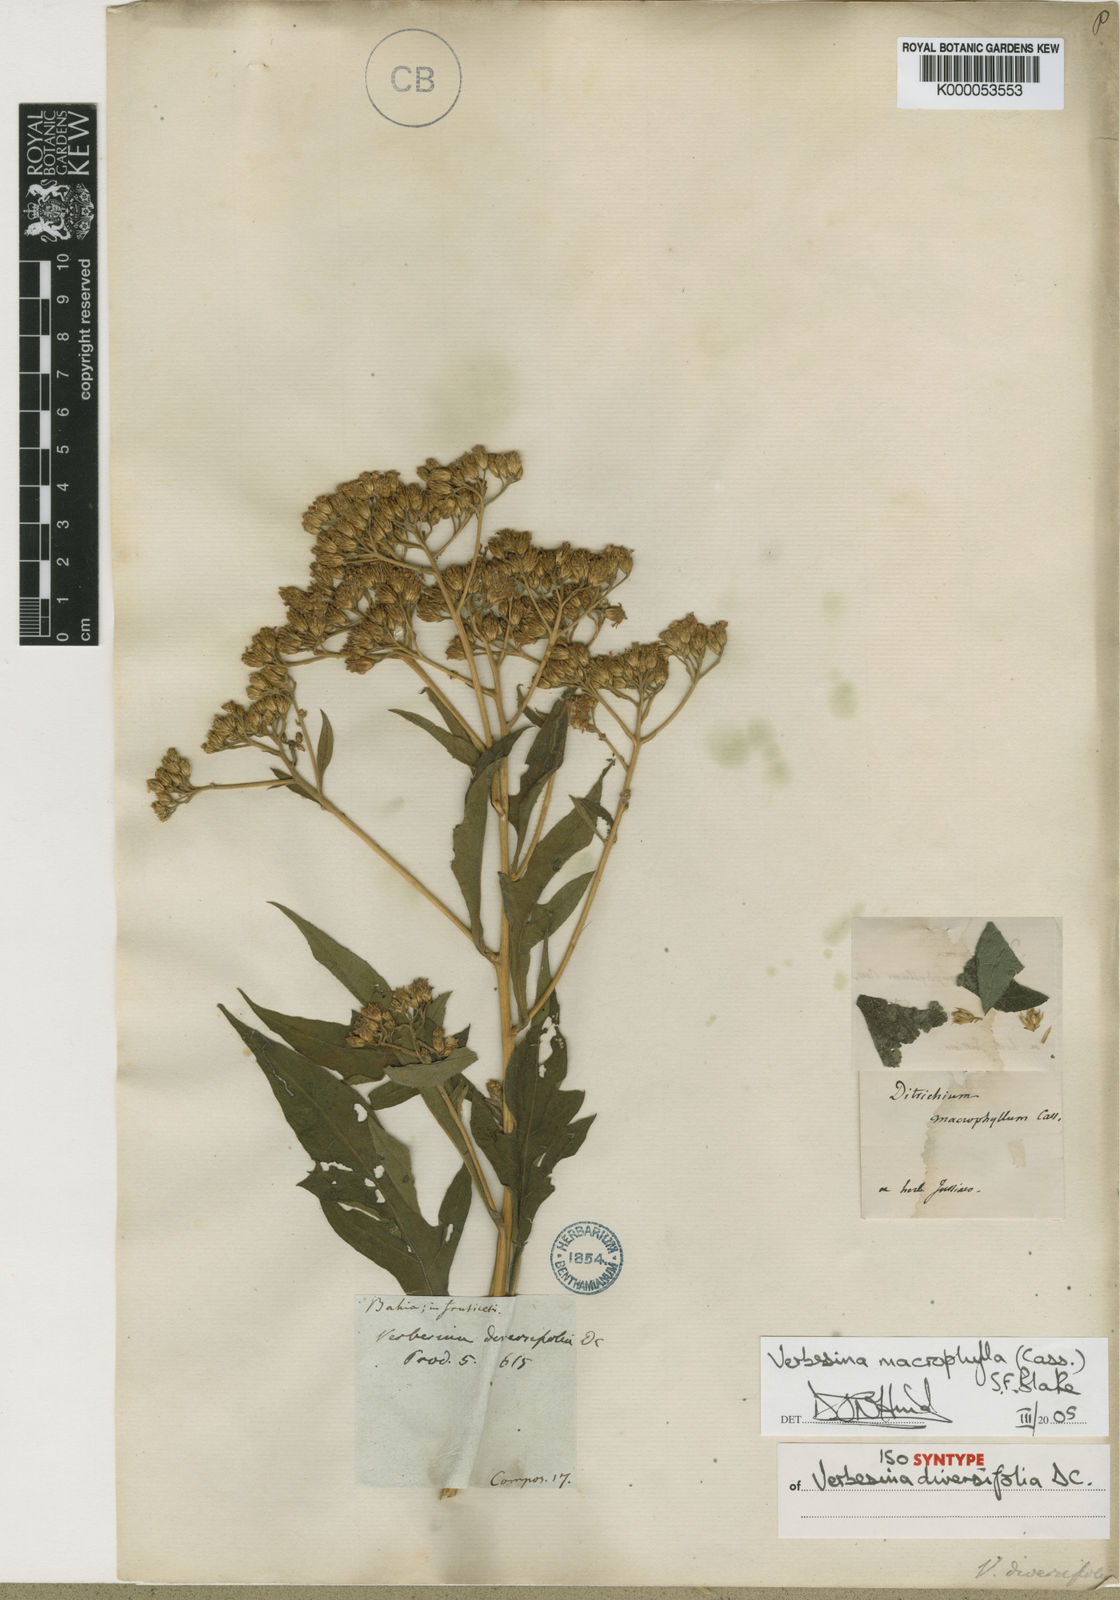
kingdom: Plantae
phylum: Tracheophyta
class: Magnoliopsida
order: Asterales
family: Asteraceae
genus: Verbesina
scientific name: Verbesina macrophylla
